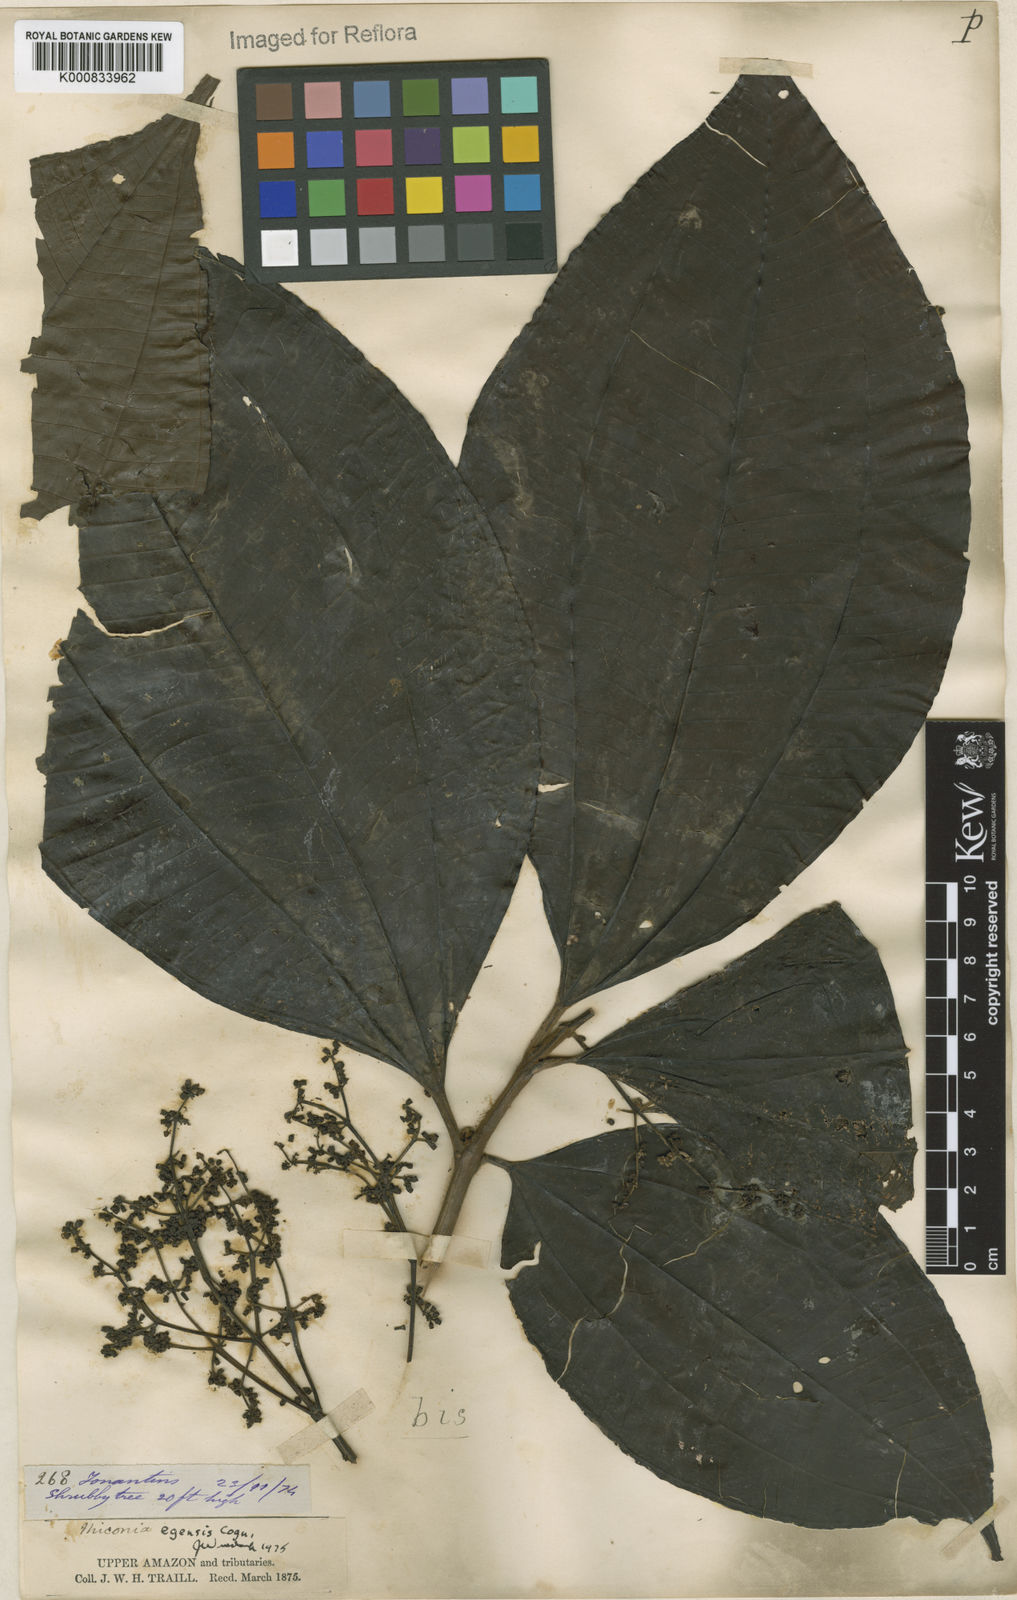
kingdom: Plantae
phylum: Tracheophyta
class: Magnoliopsida
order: Myrtales
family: Melastomataceae
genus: Miconia
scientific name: Miconia egensis
